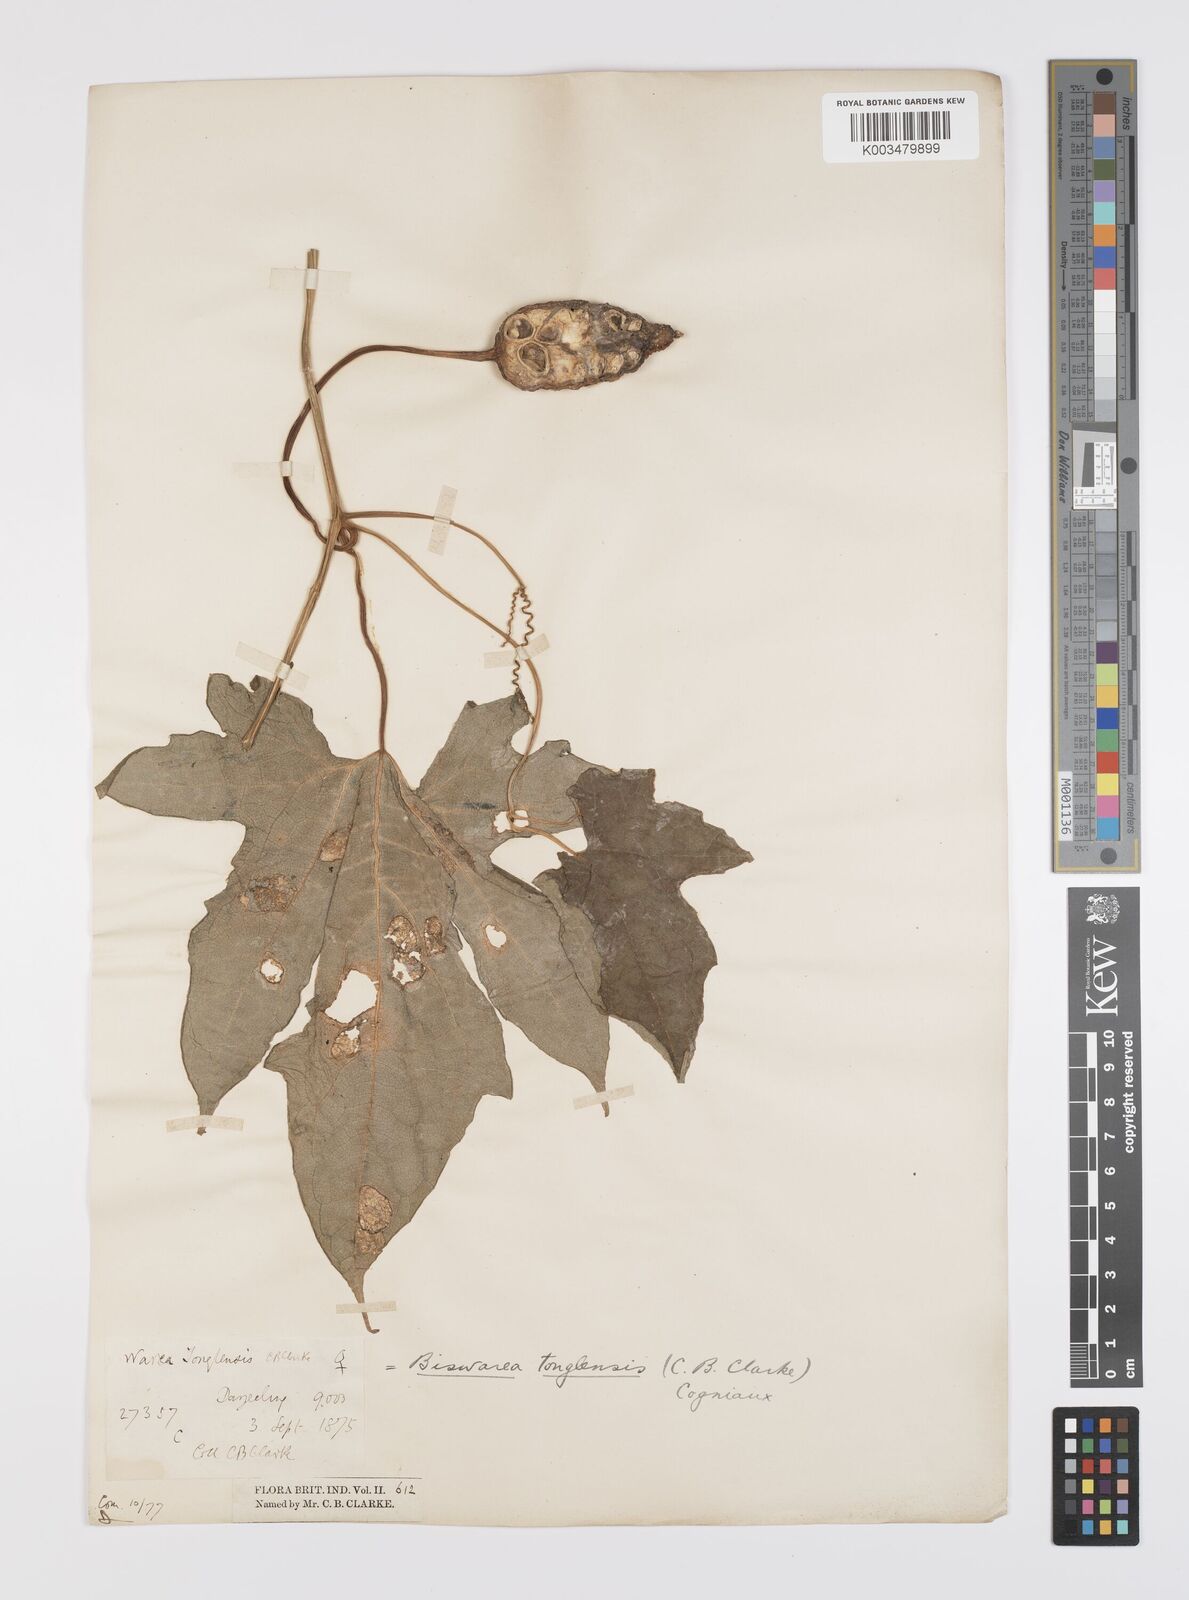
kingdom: Plantae
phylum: Tracheophyta
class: Magnoliopsida
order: Cucurbitales
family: Cucurbitaceae
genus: Benincasa
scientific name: Benincasa
